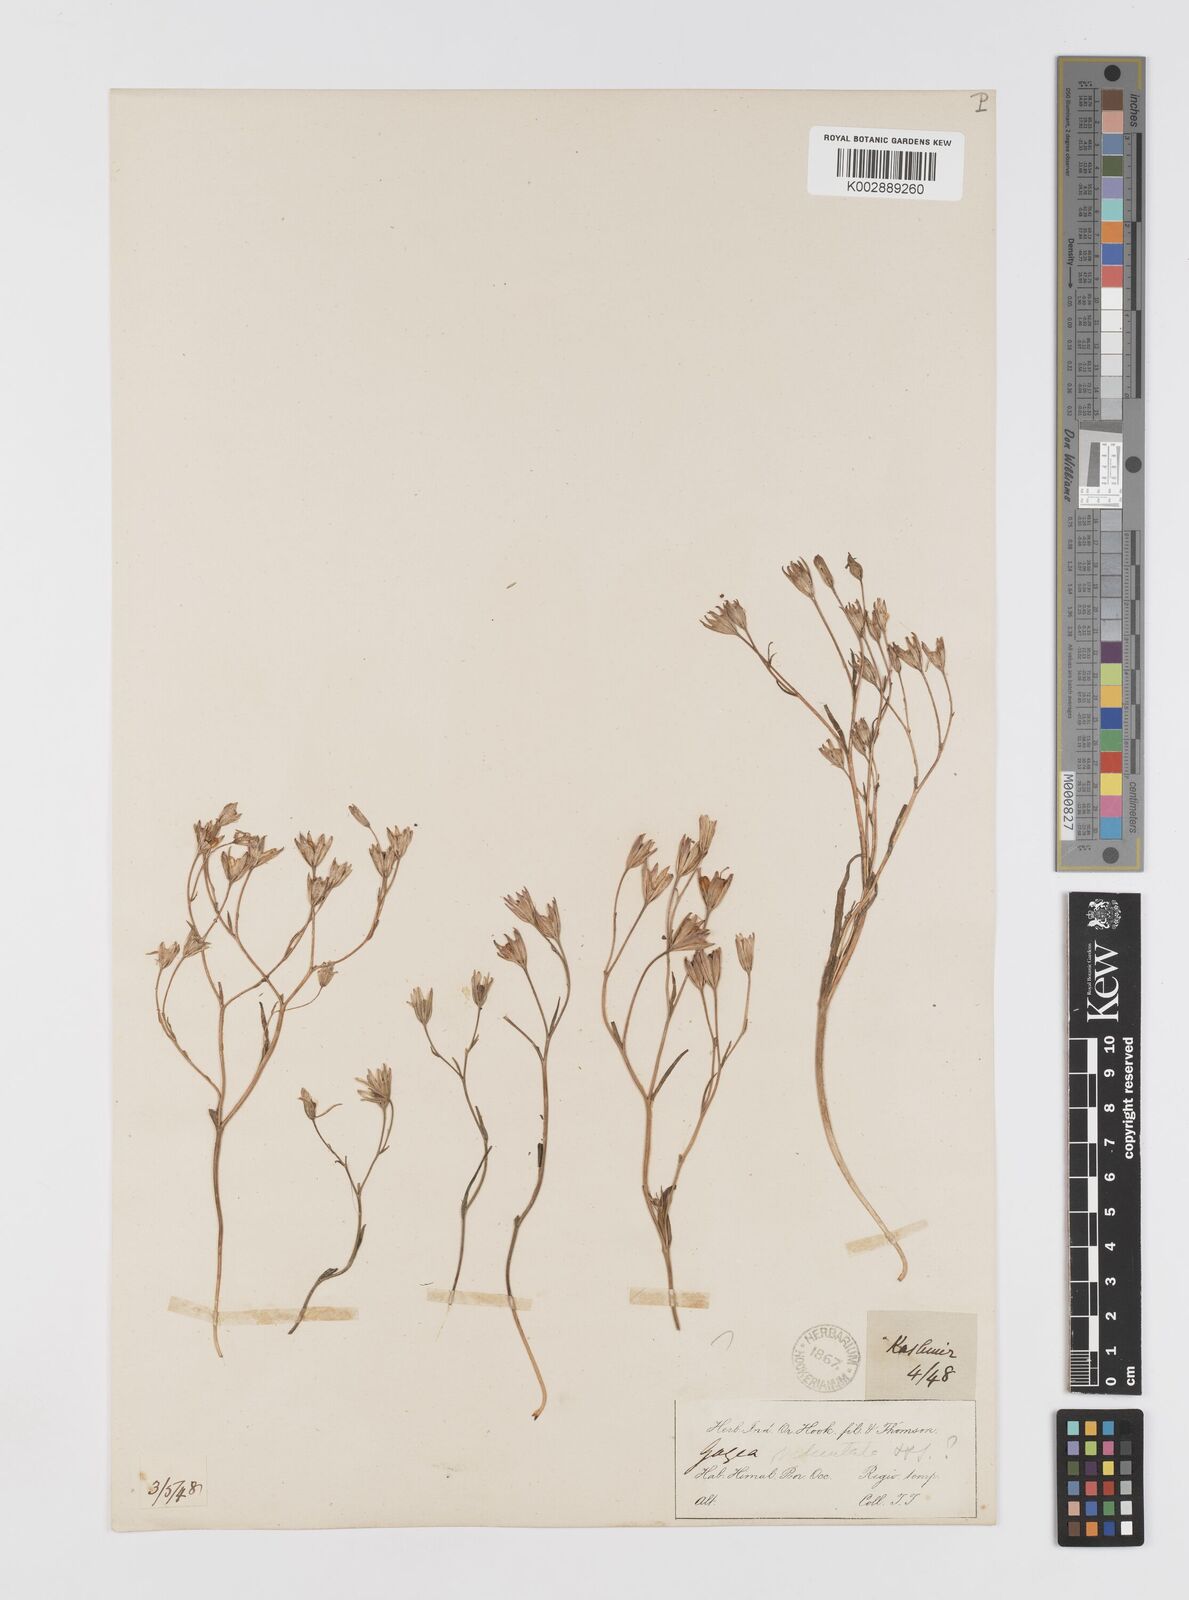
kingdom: Plantae
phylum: Tracheophyta
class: Liliopsida
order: Liliales
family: Liliaceae
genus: Gagea
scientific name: Gagea gageoides
